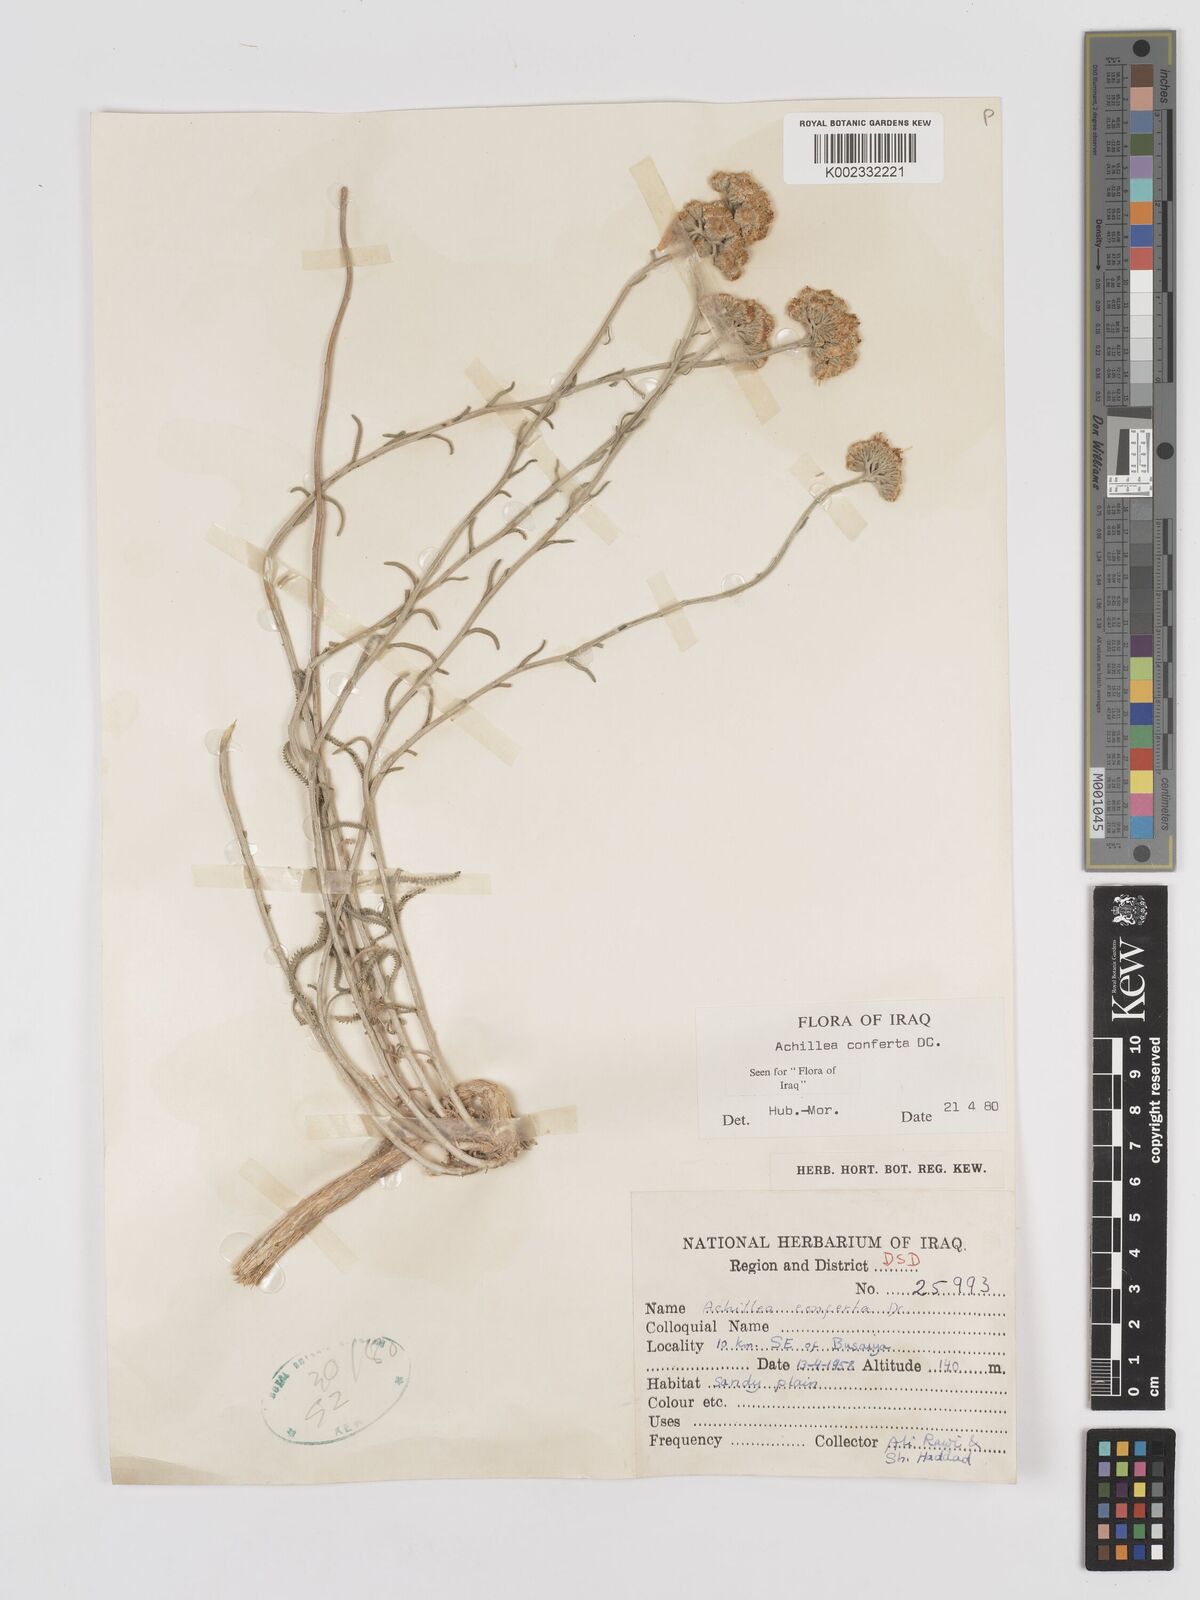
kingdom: Plantae
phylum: Tracheophyta
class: Magnoliopsida
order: Asterales
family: Asteraceae
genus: Achillea
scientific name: Achillea conferta
